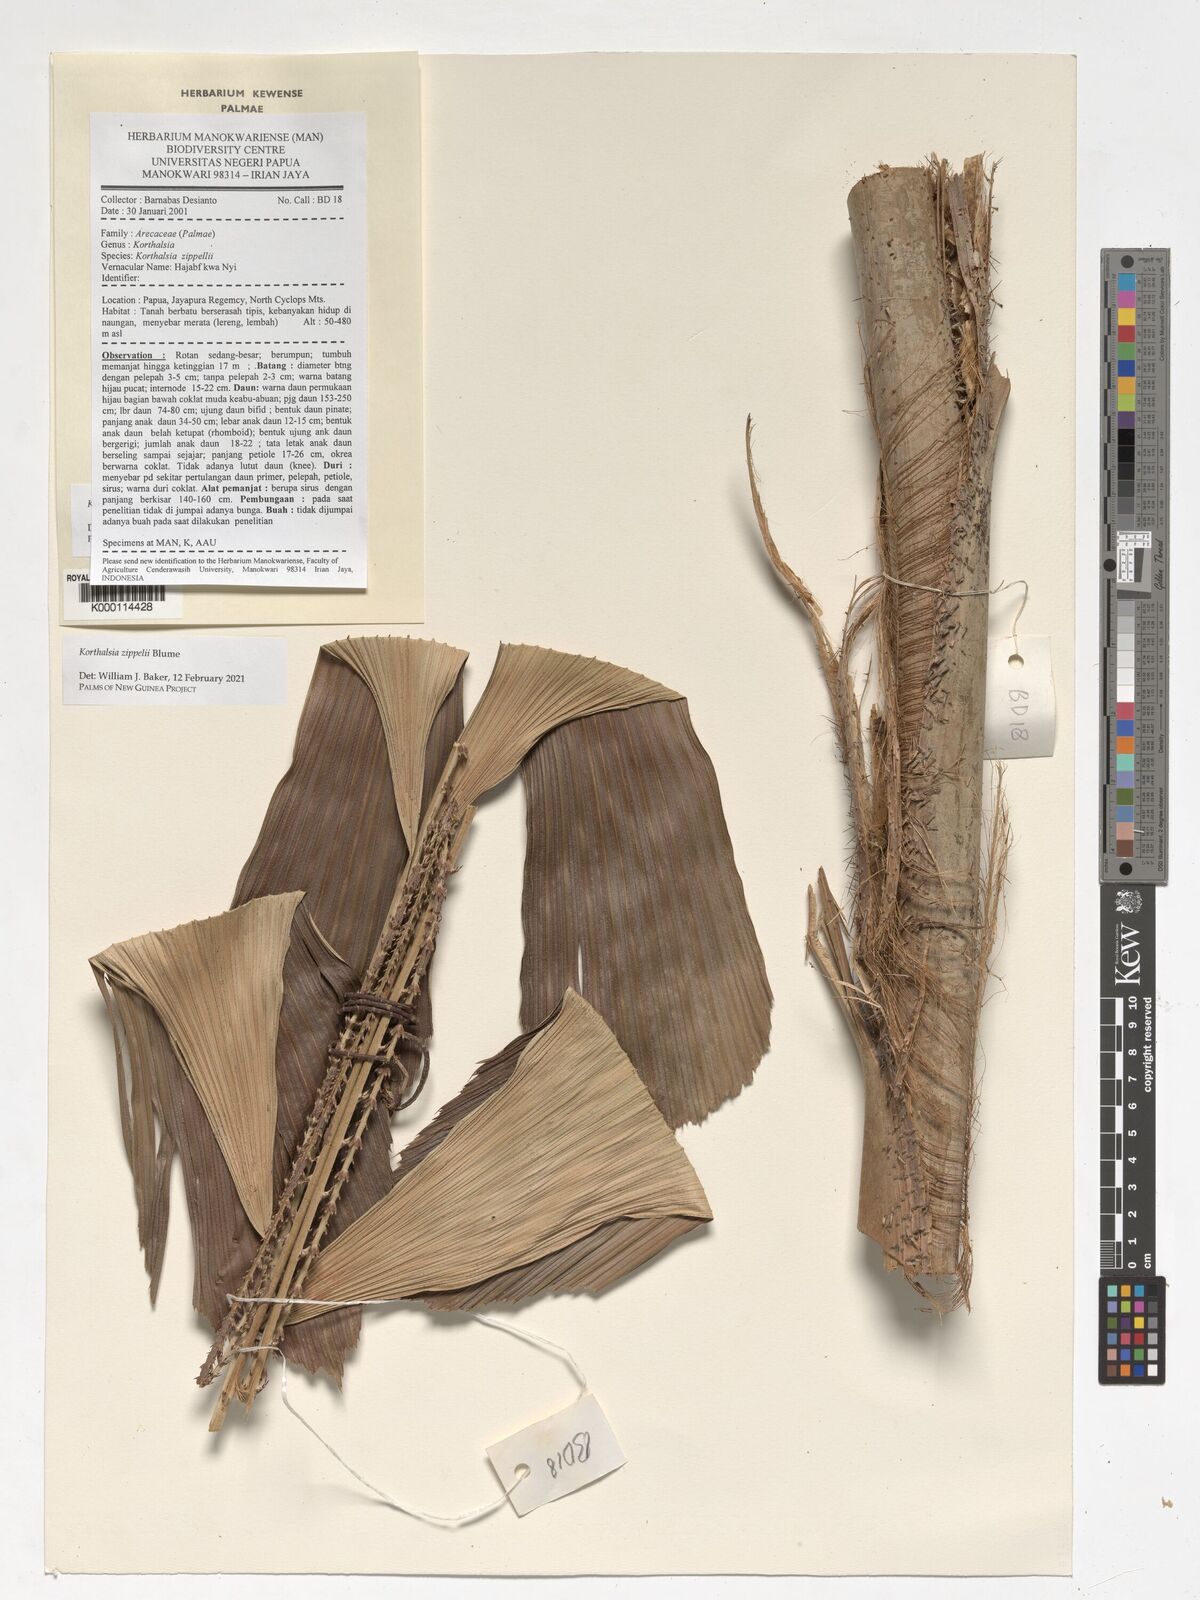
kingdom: Plantae
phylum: Tracheophyta
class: Liliopsida
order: Arecales
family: Arecaceae
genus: Korthalsia
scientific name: Korthalsia zippelii
